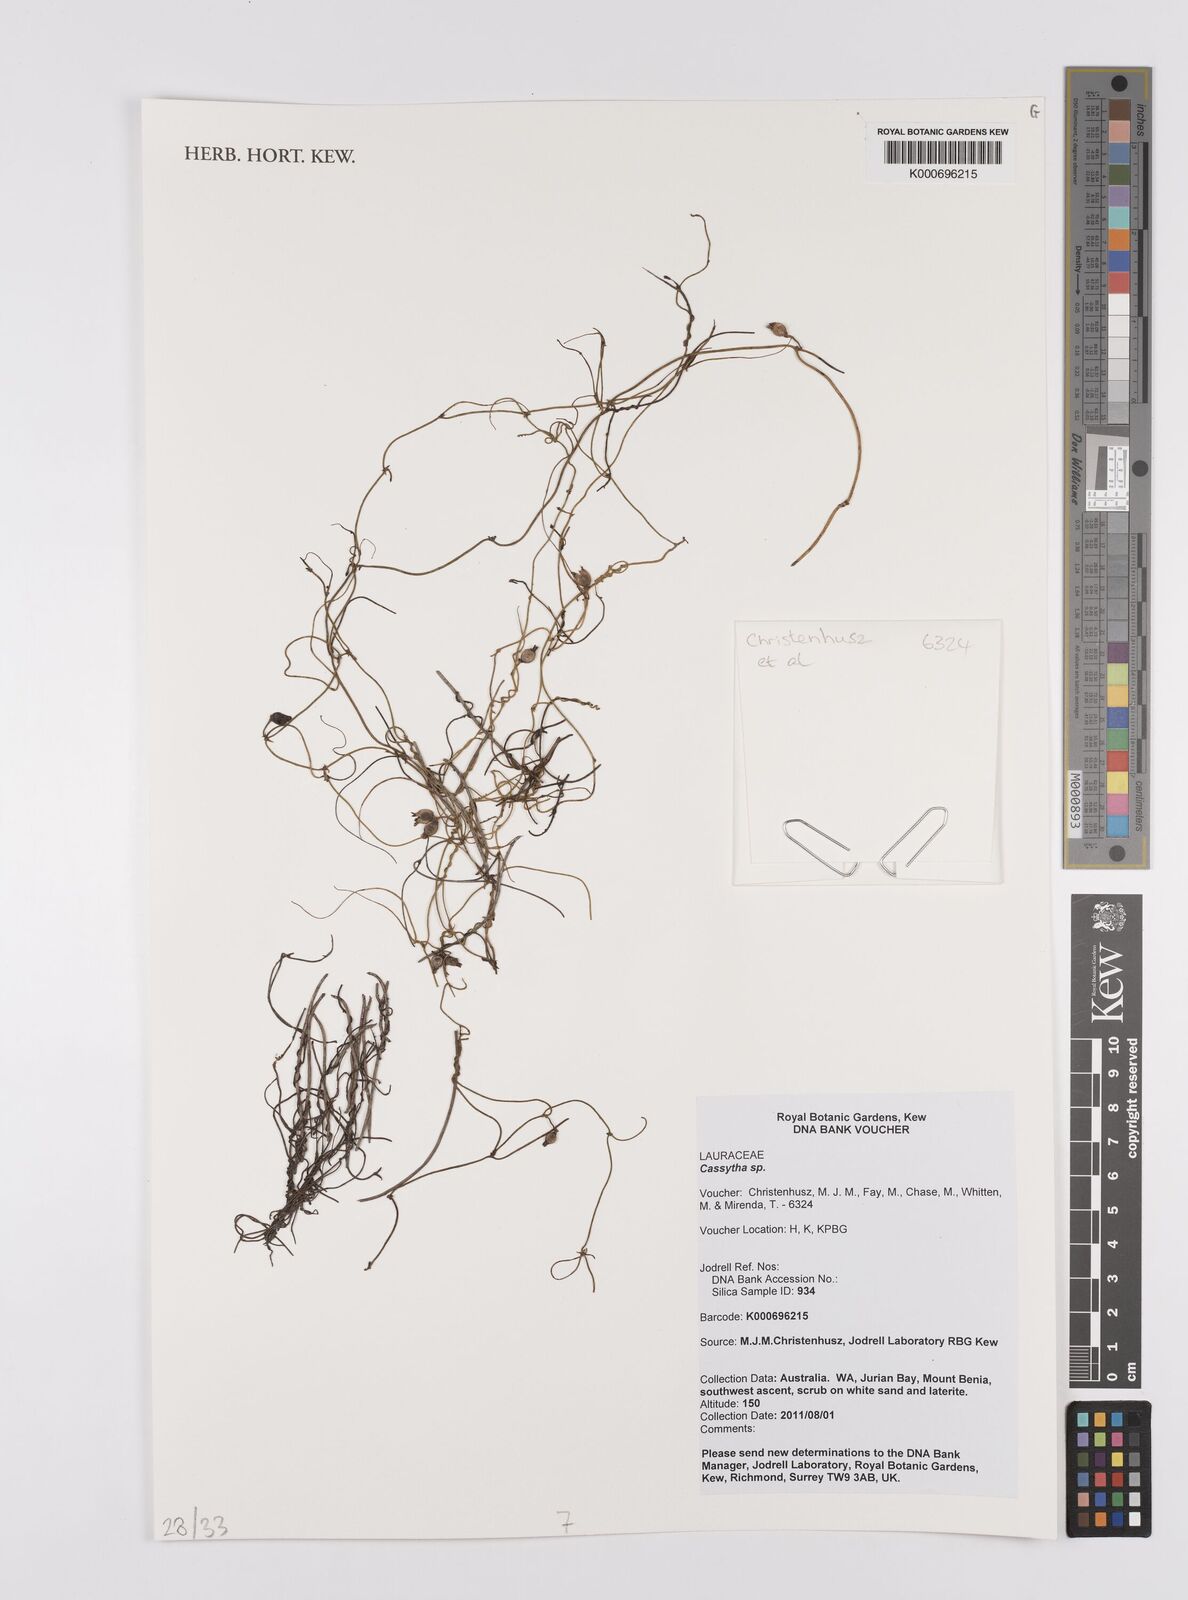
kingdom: Plantae
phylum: Tracheophyta
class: Magnoliopsida
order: Laurales
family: Lauraceae
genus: Cassytha
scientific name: Cassytha
